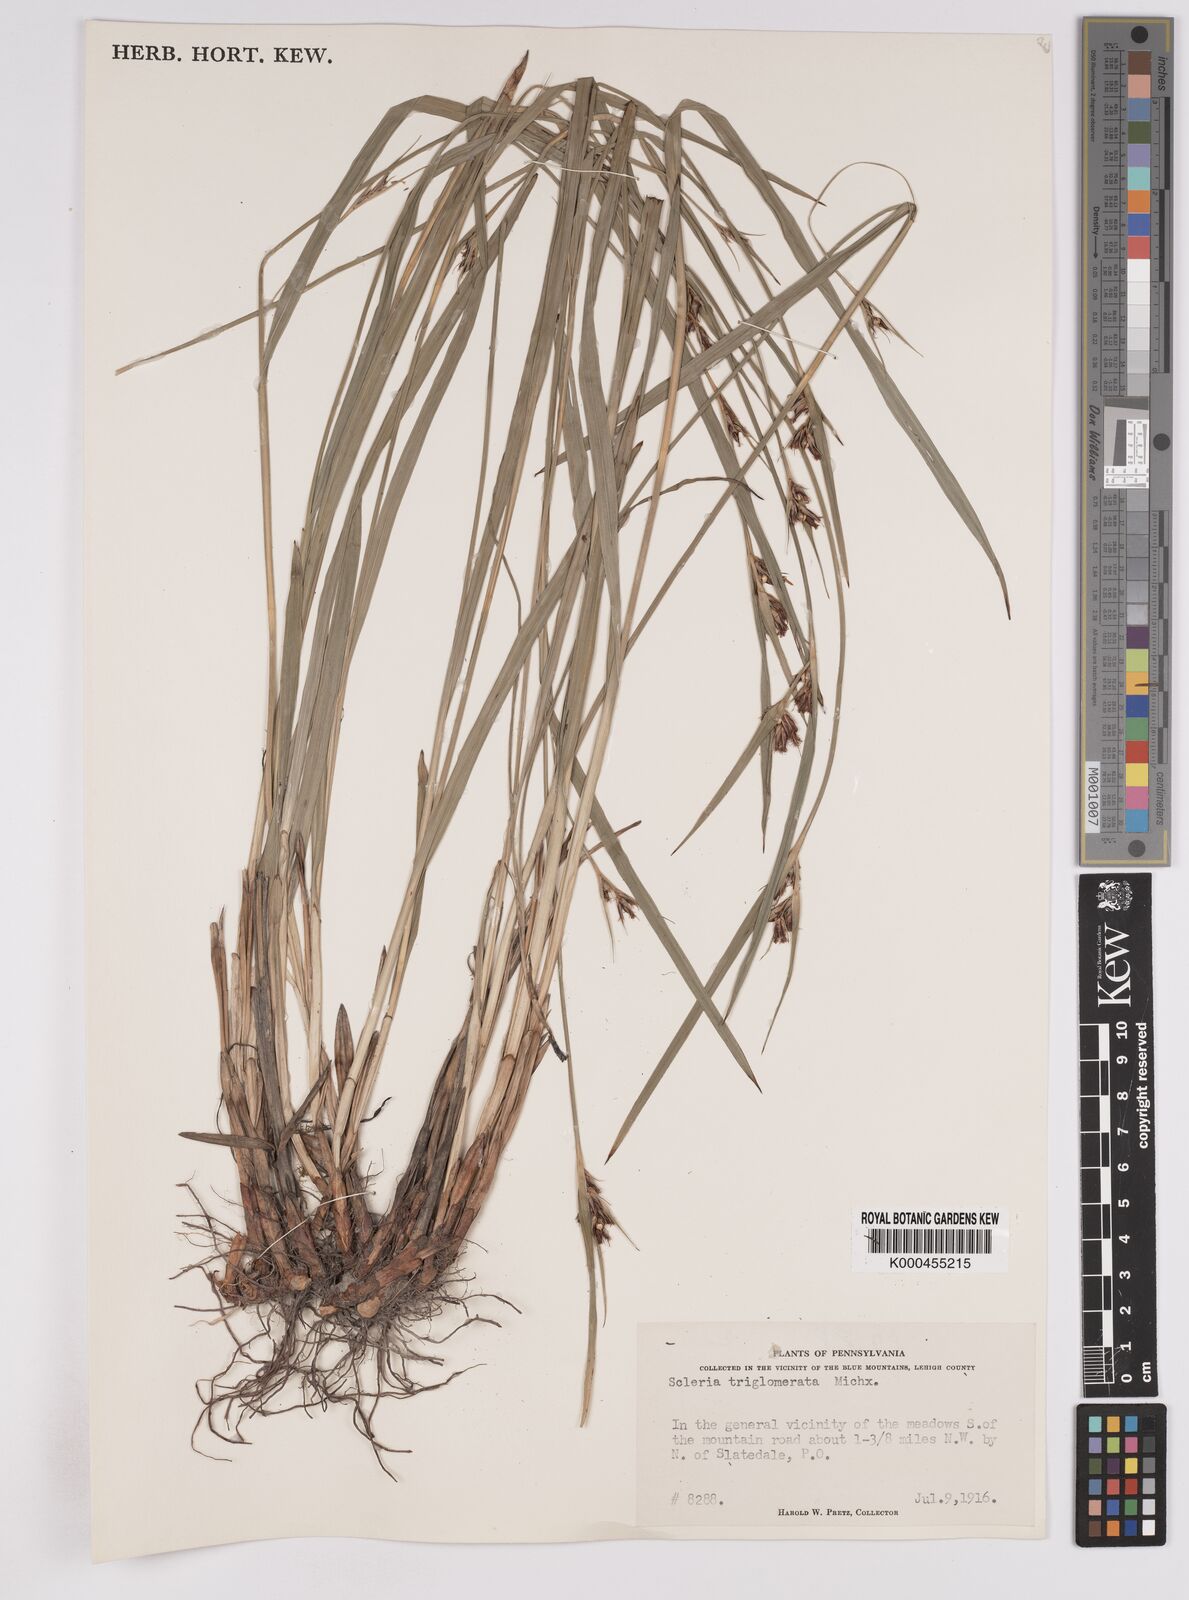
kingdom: Plantae
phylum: Tracheophyta
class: Liliopsida
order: Poales
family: Cyperaceae
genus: Scleria
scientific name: Scleria triglomerata
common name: Whip nutrush
